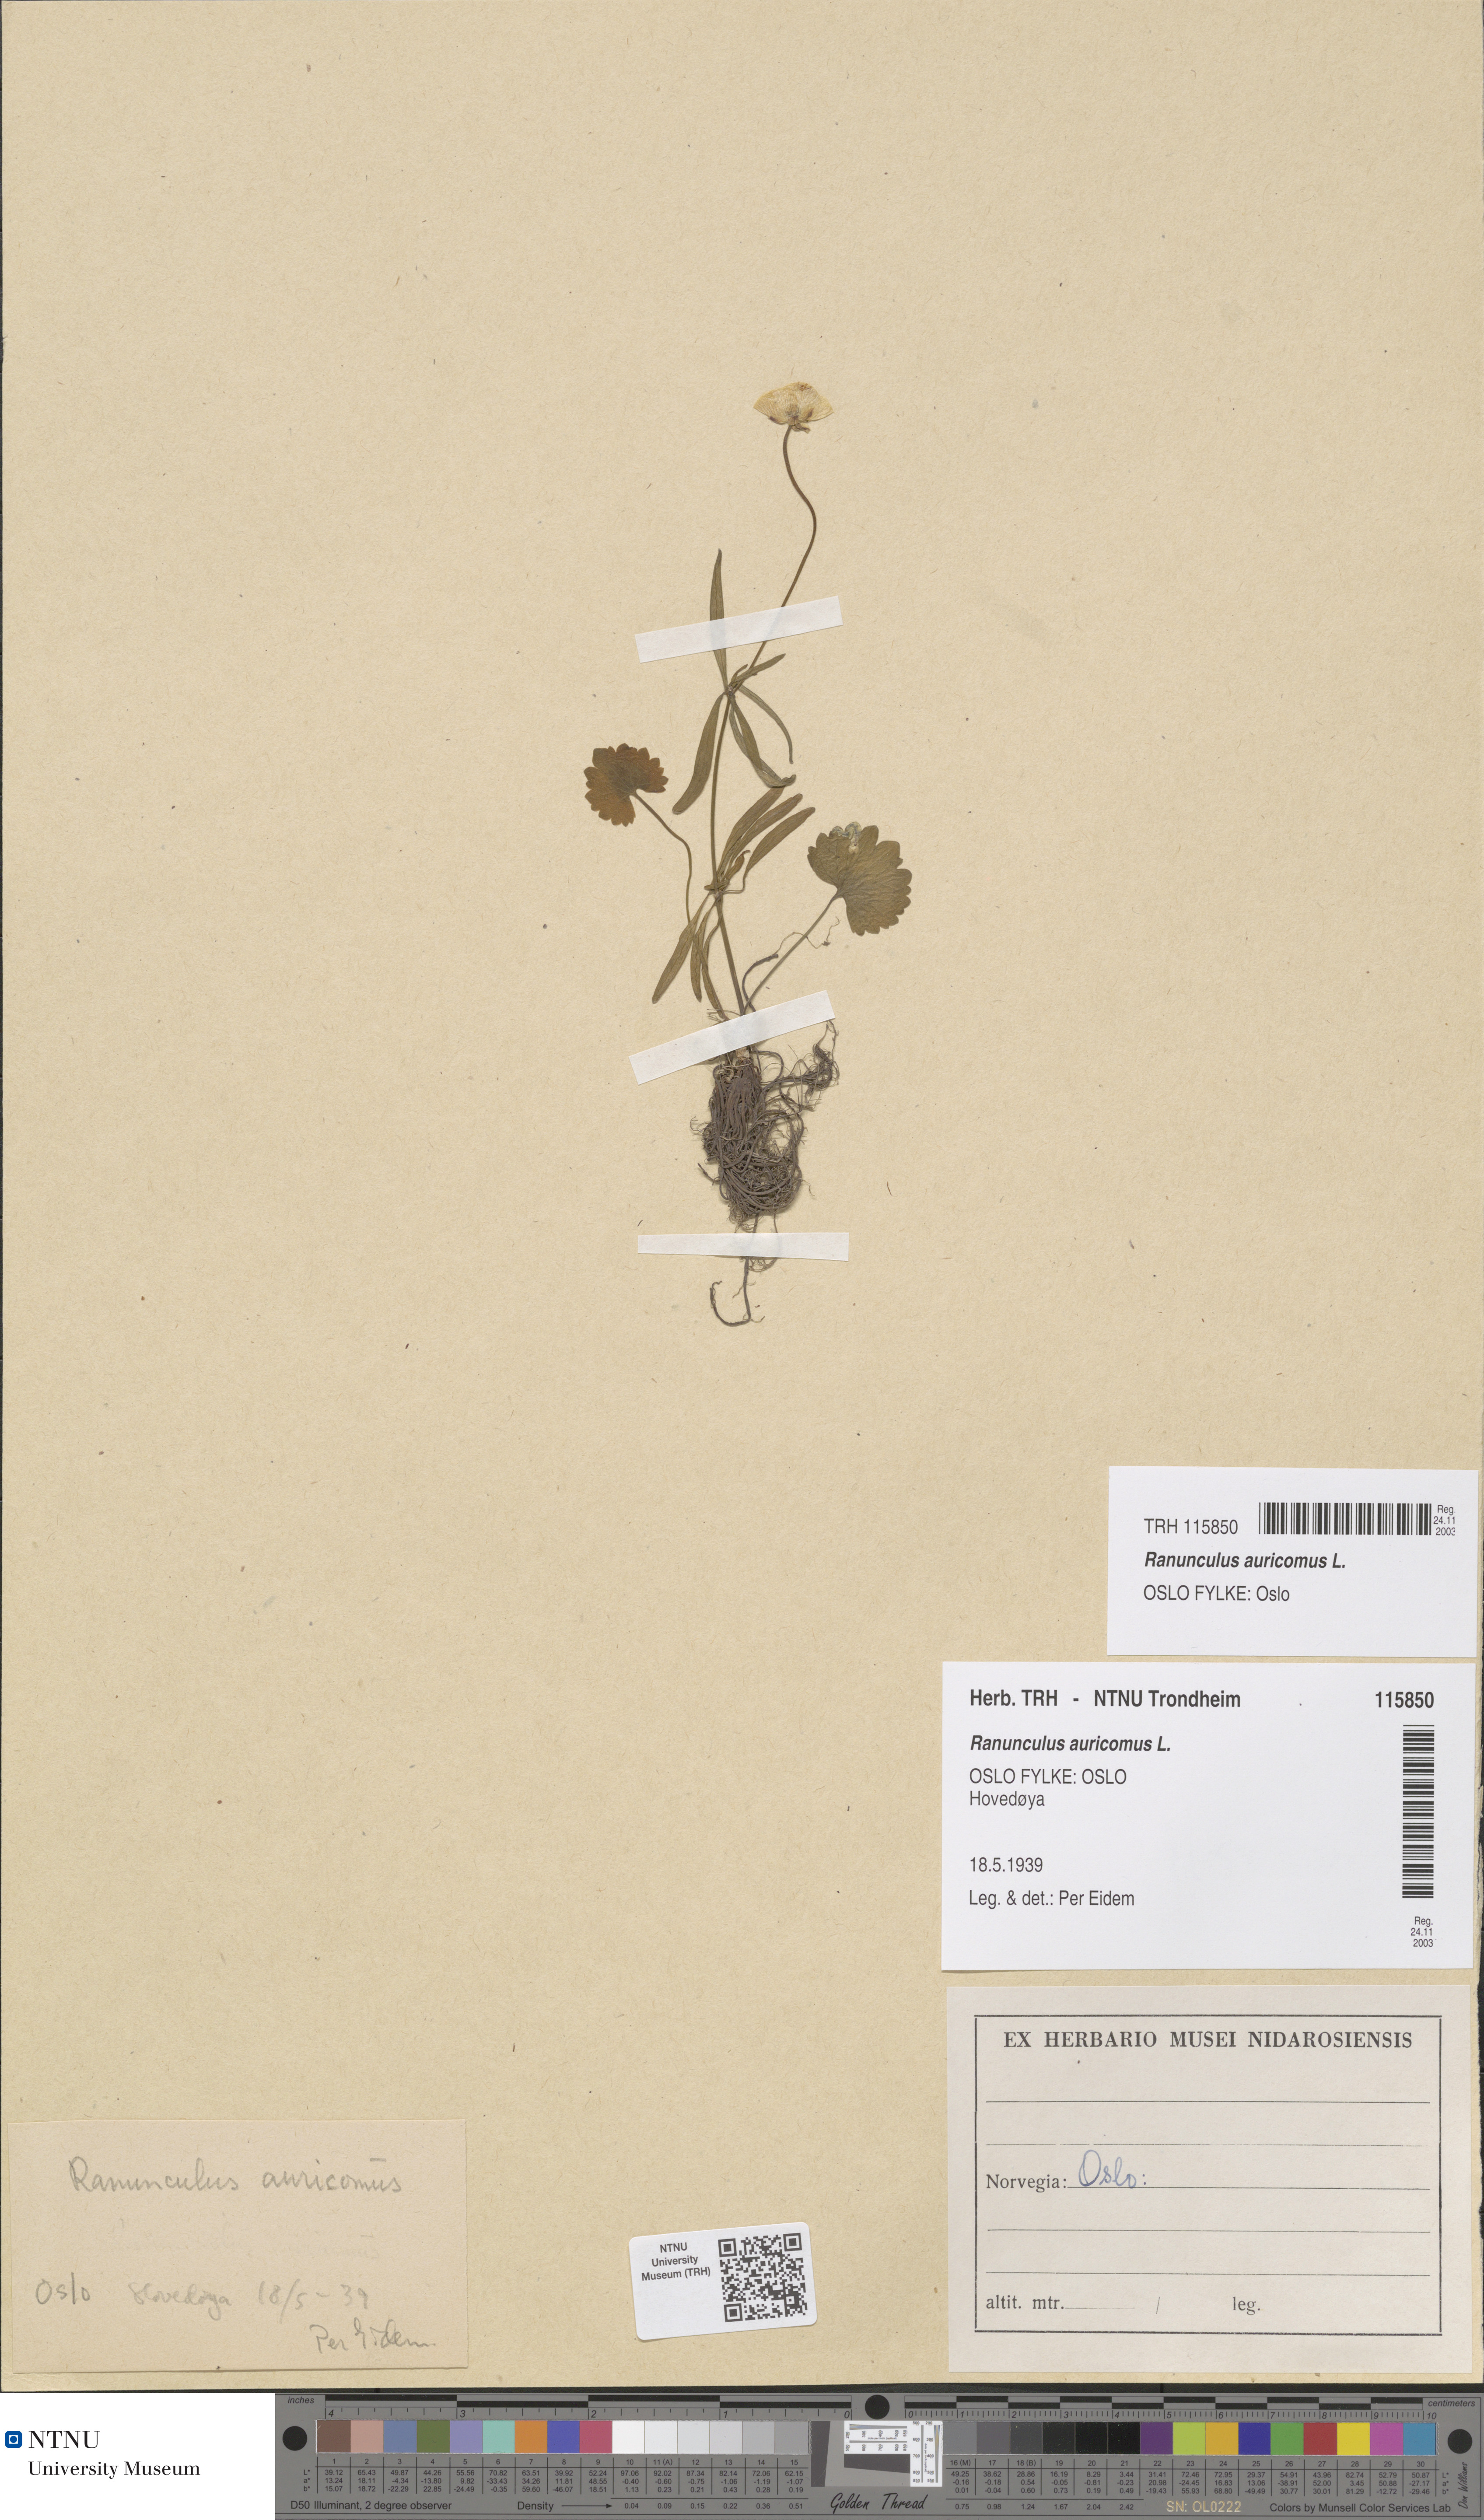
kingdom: Plantae
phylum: Tracheophyta
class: Magnoliopsida
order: Ranunculales
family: Ranunculaceae
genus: Ranunculus
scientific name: Ranunculus auricomus
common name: Goldilocks buttercup
